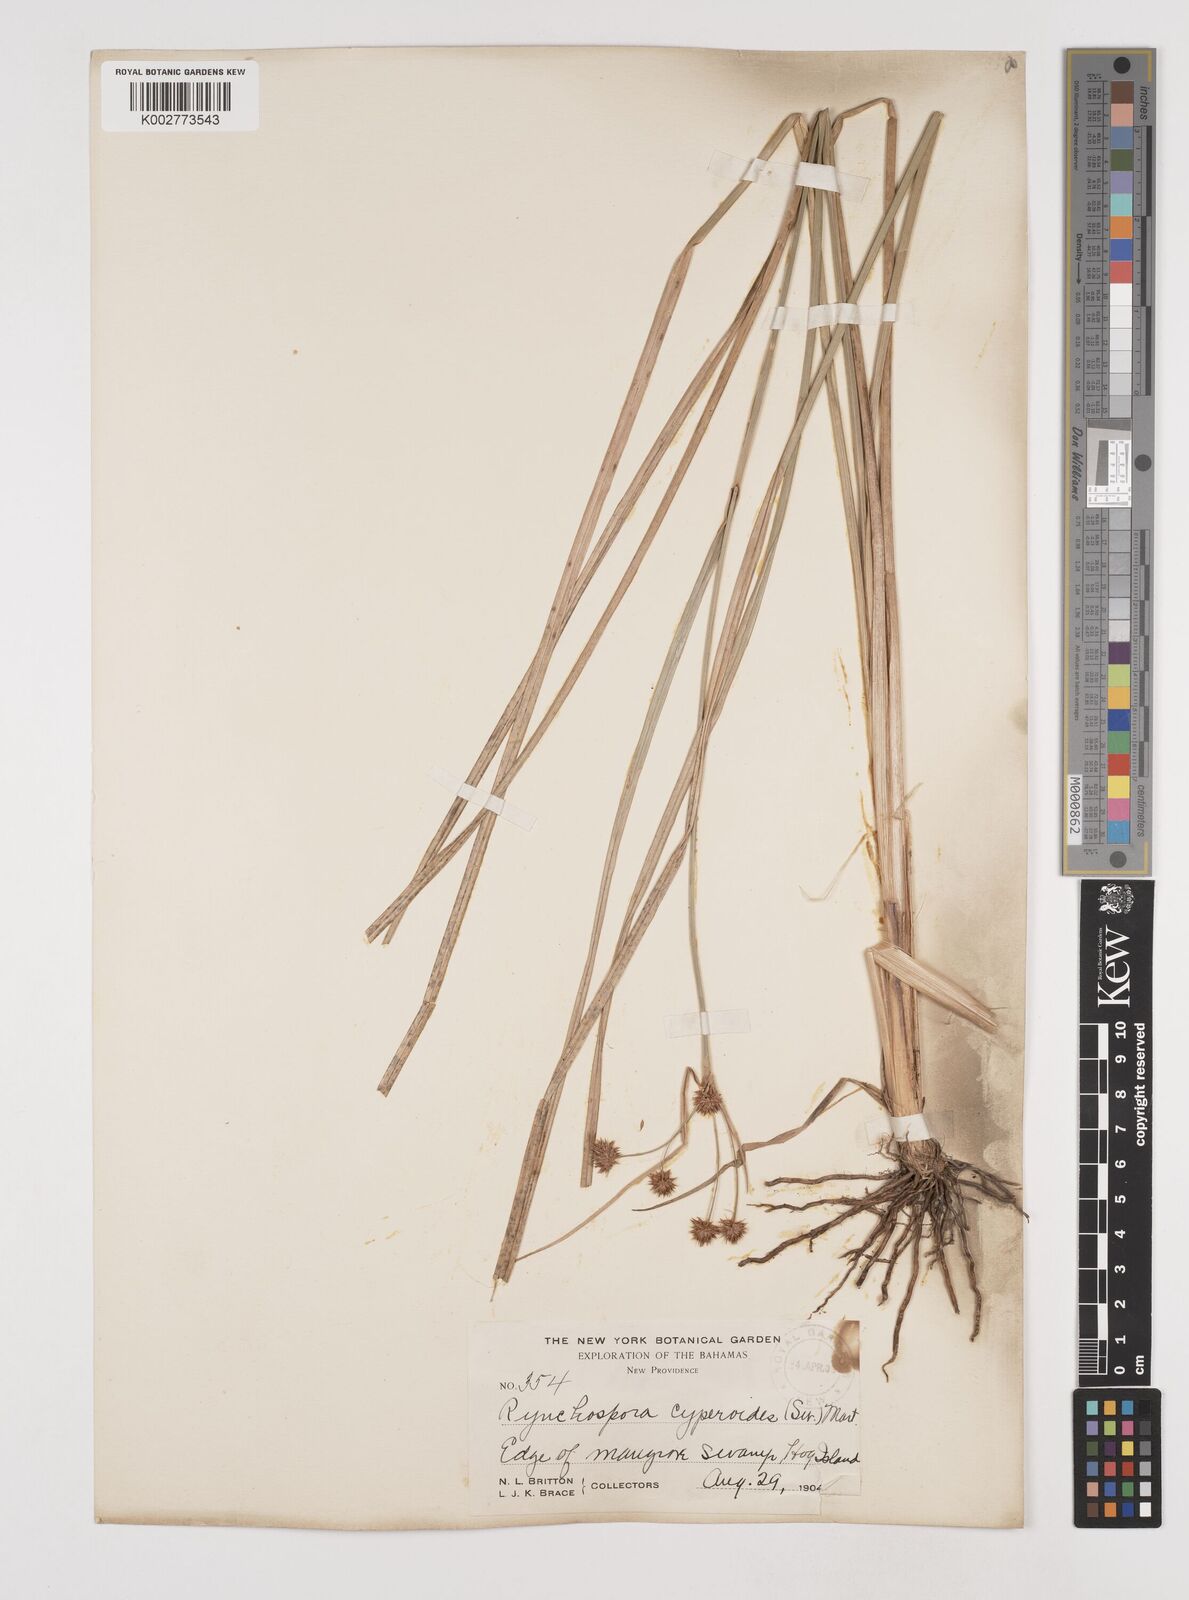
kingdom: Plantae
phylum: Tracheophyta
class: Liliopsida
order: Poales
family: Cyperaceae
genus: Rhynchospora
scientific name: Rhynchospora holoschoenoides
